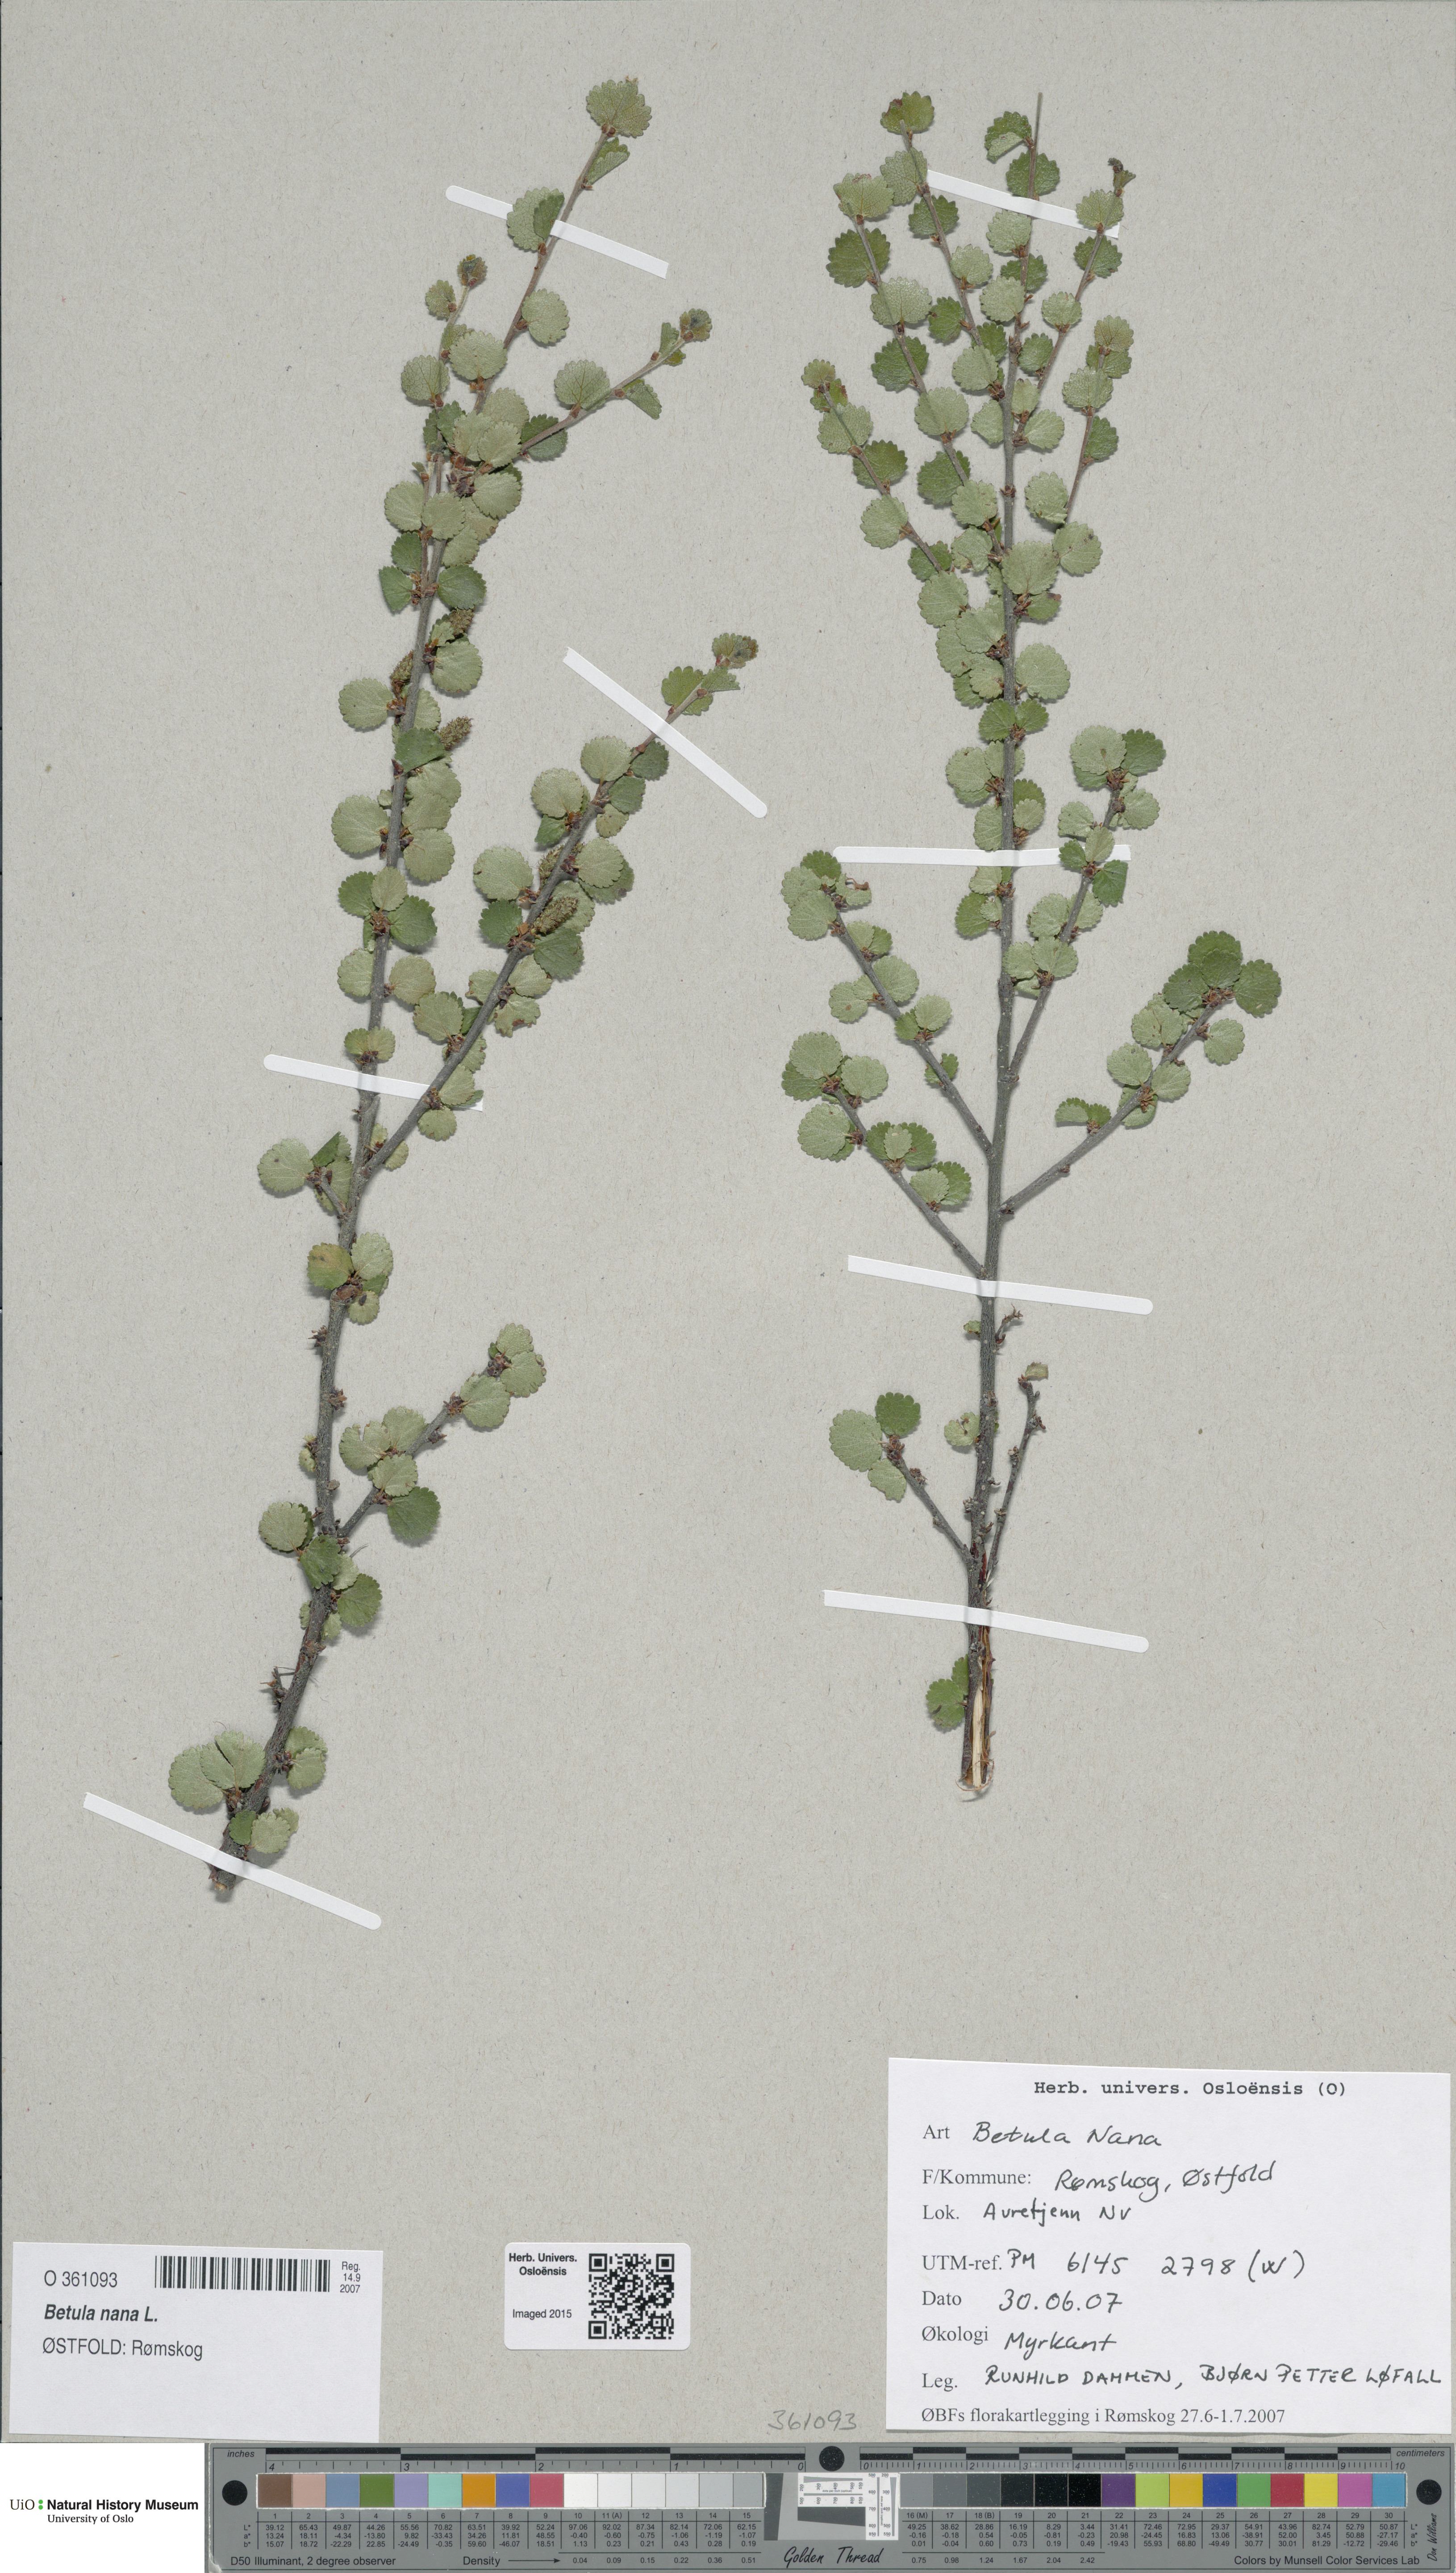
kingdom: Plantae
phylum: Tracheophyta
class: Magnoliopsida
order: Fagales
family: Betulaceae
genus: Betula
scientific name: Betula nana
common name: Arctic dwarf birch
